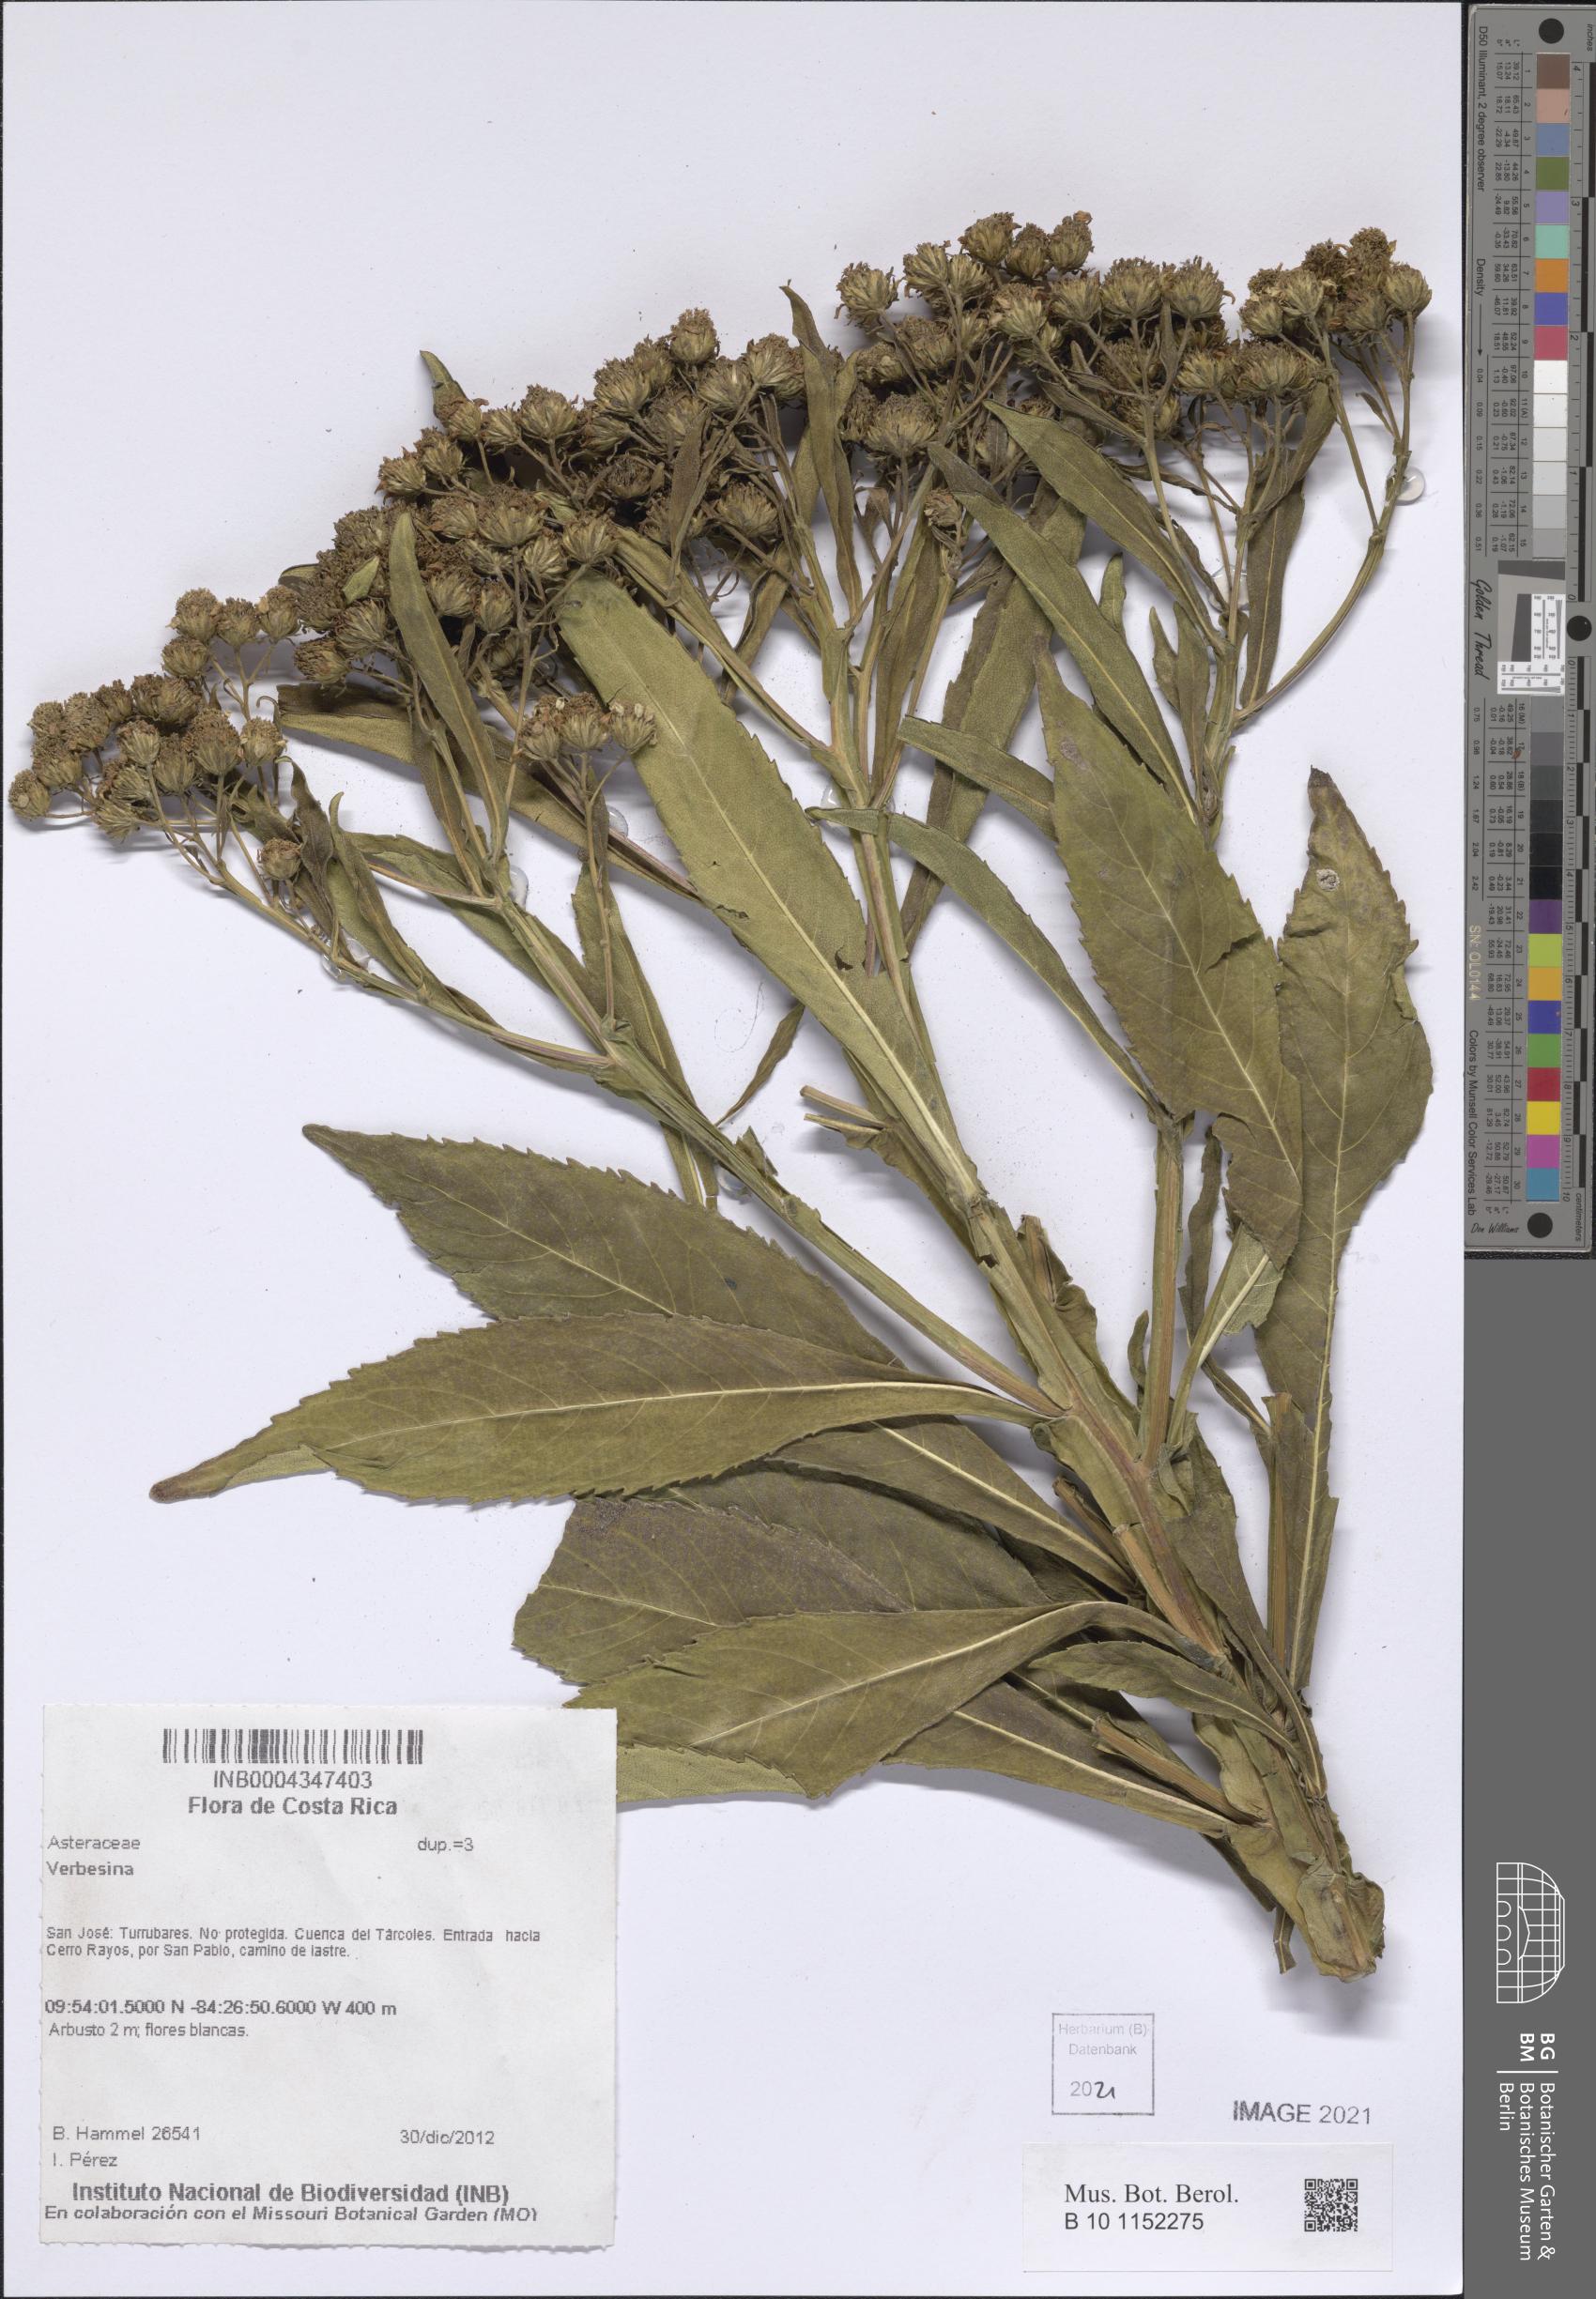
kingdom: Plantae
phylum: Tracheophyta
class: Magnoliopsida
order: Asterales
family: Asteraceae
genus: Verbesina
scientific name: Verbesina pallens
